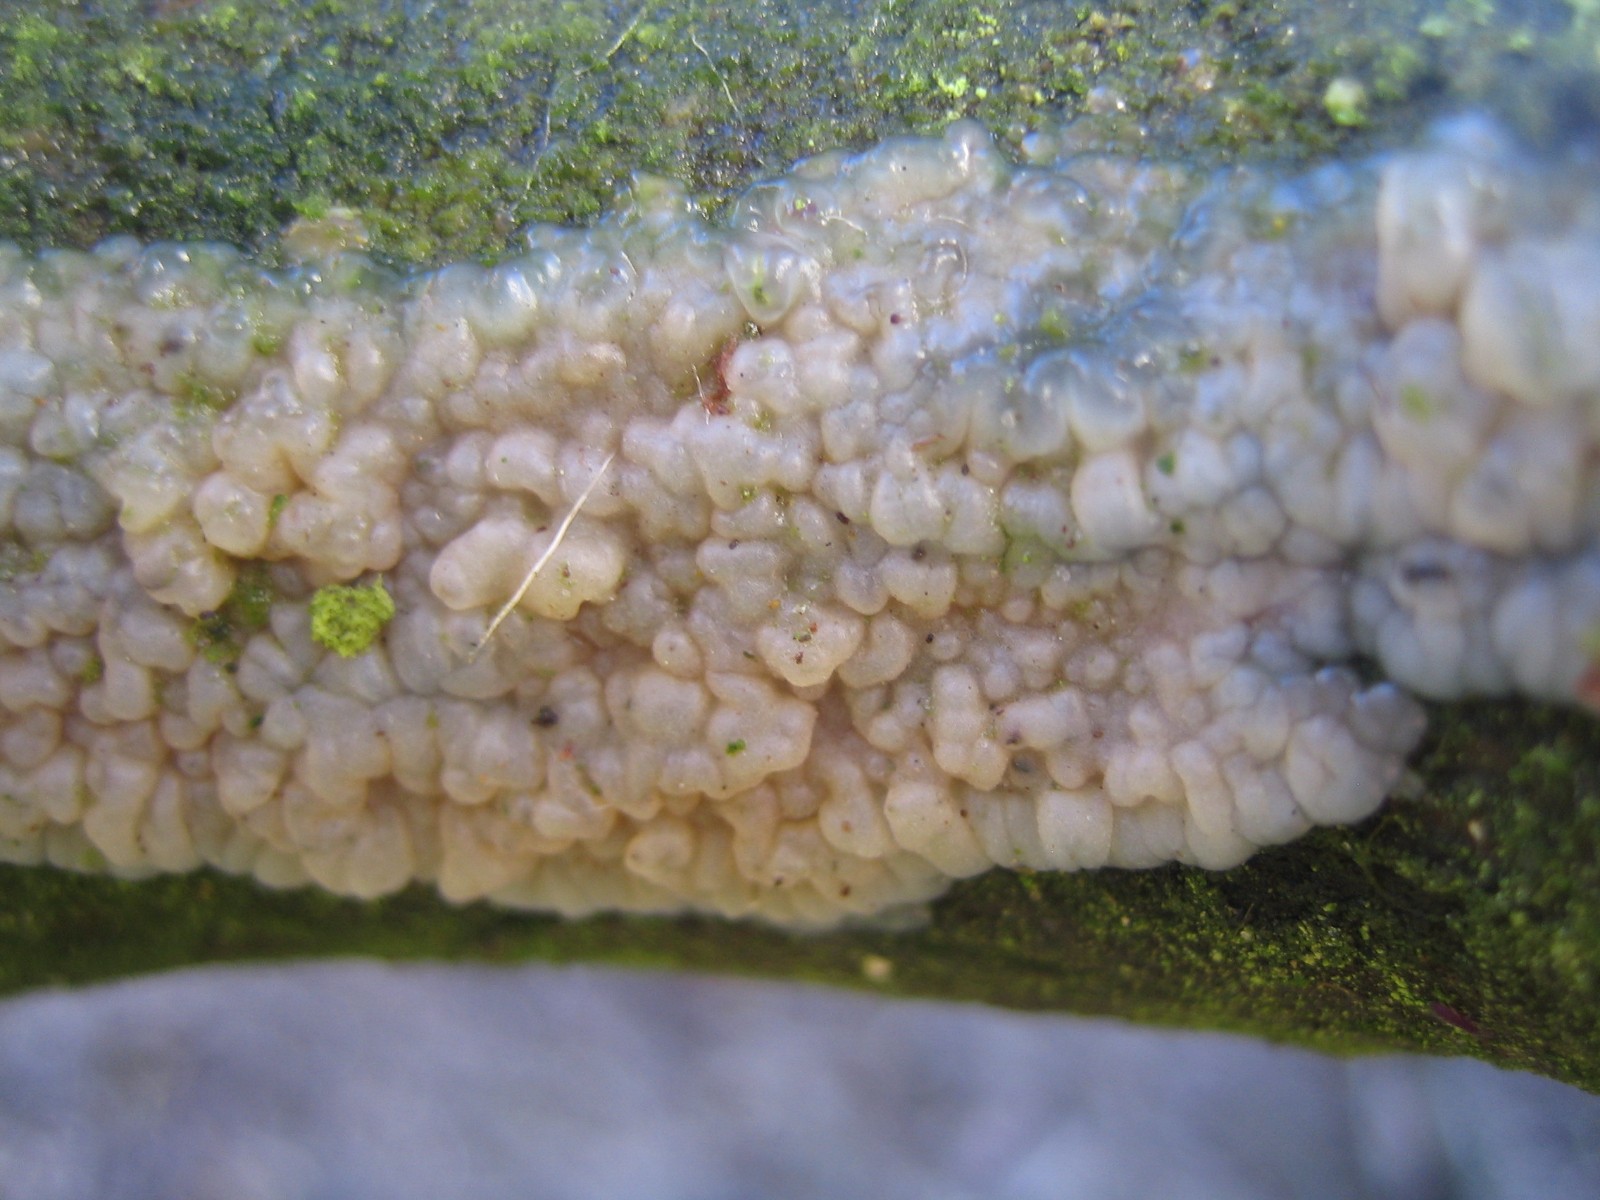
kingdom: Fungi
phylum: Basidiomycota
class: Agaricomycetes
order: Auriculariales
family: Auriculariaceae
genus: Exidia
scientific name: Exidia thuretiana
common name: hvidlig bævretop
